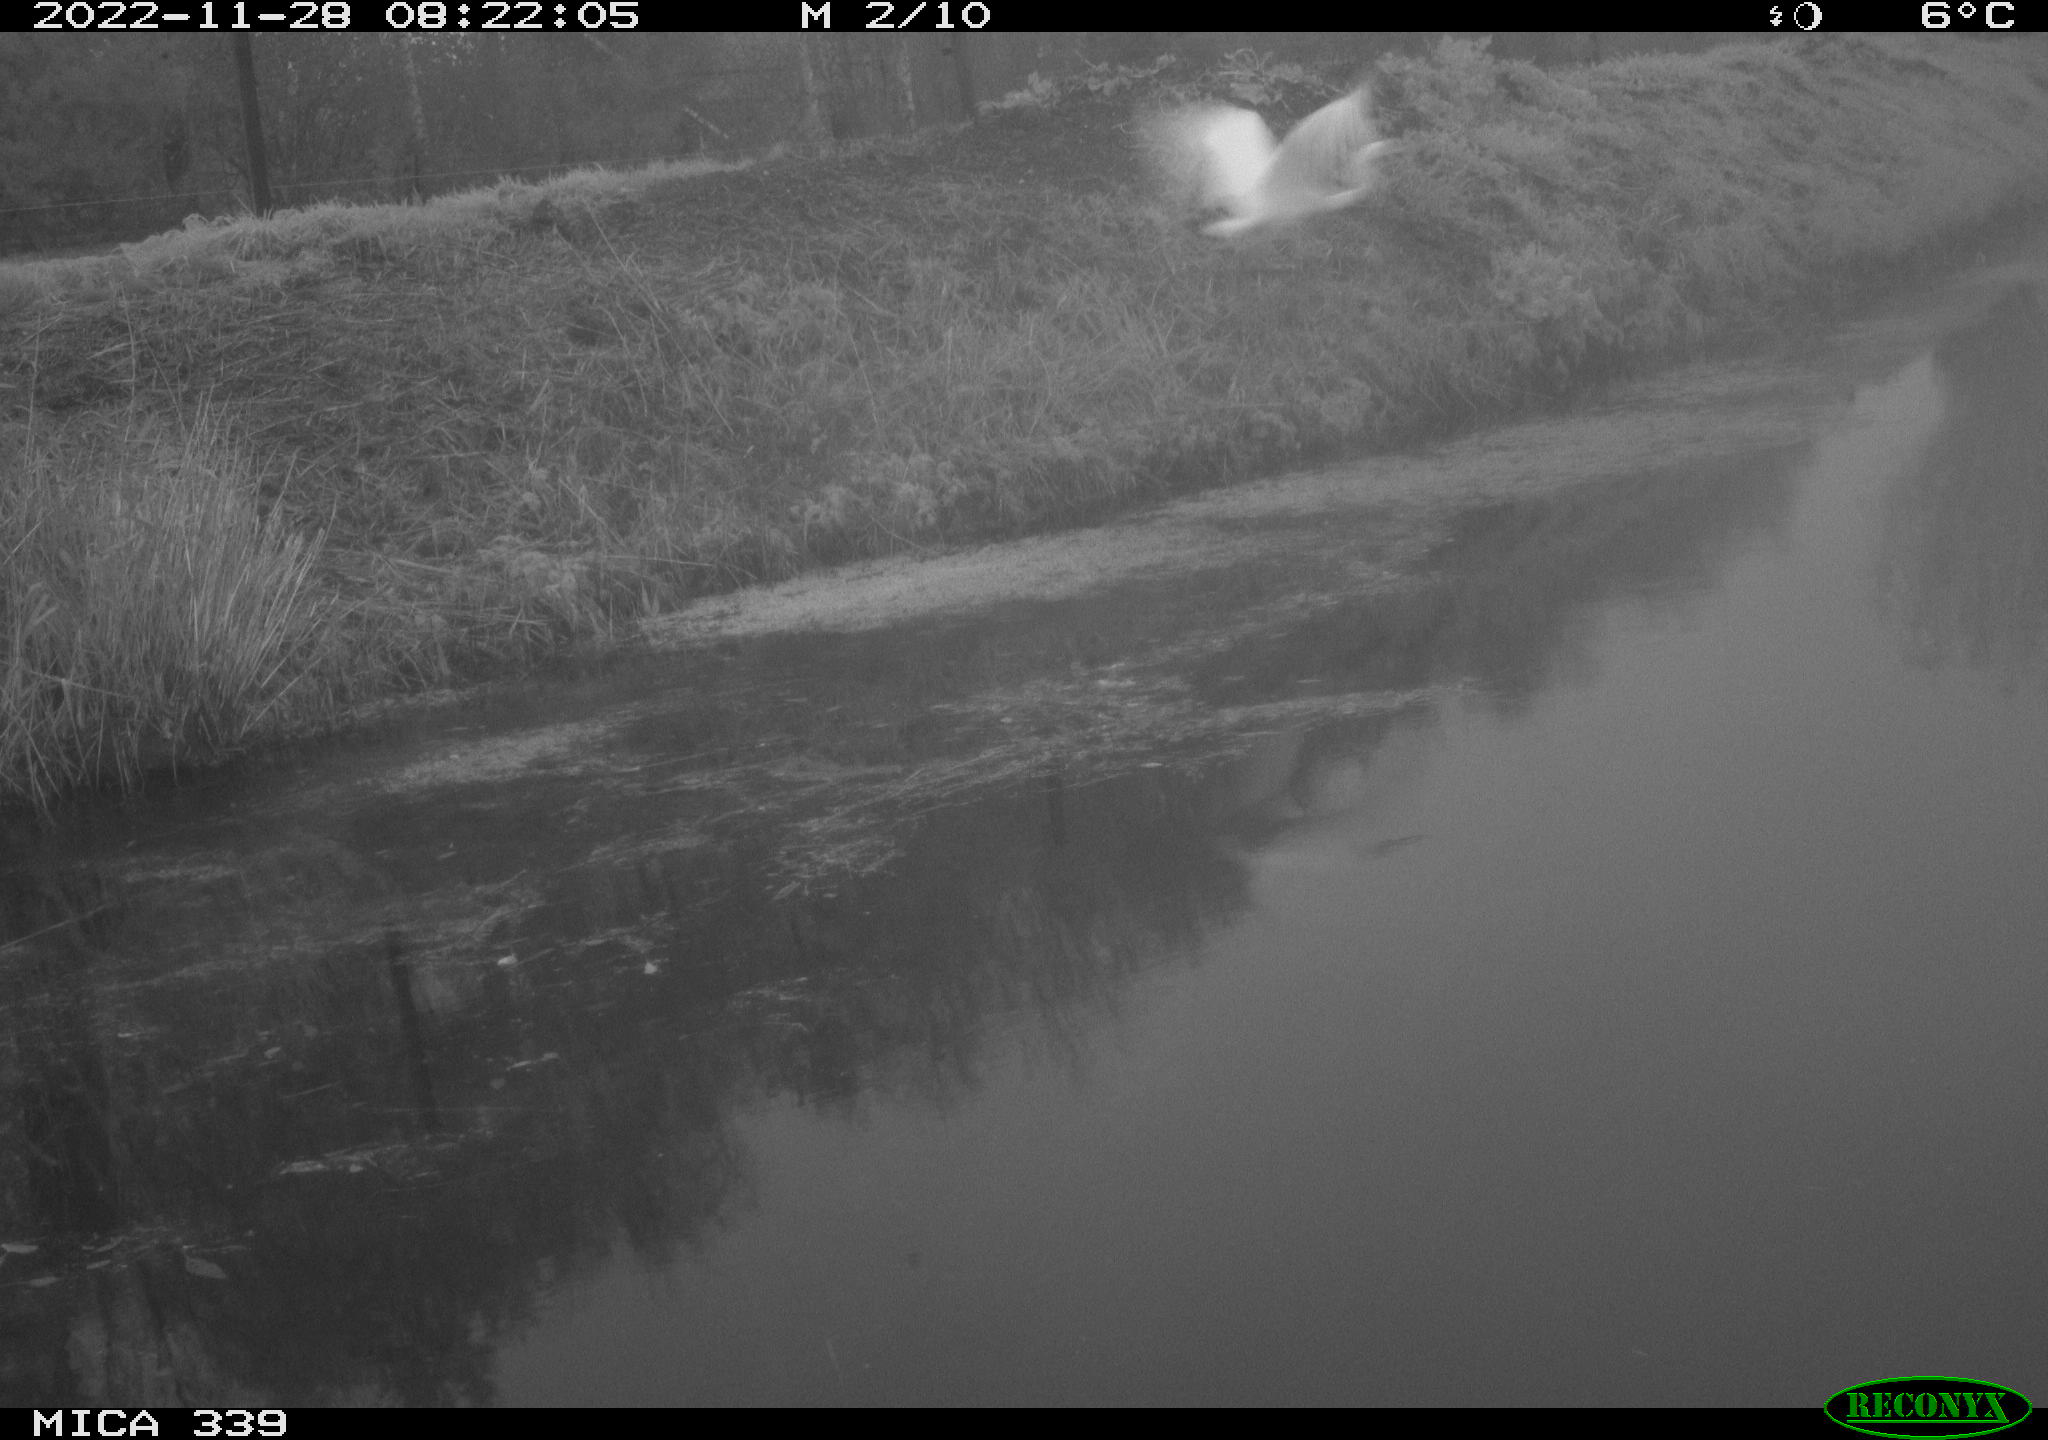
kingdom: Animalia
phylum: Chordata
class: Aves
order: Pelecaniformes
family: Ardeidae
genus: Ardea
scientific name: Ardea alba
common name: Great egret
